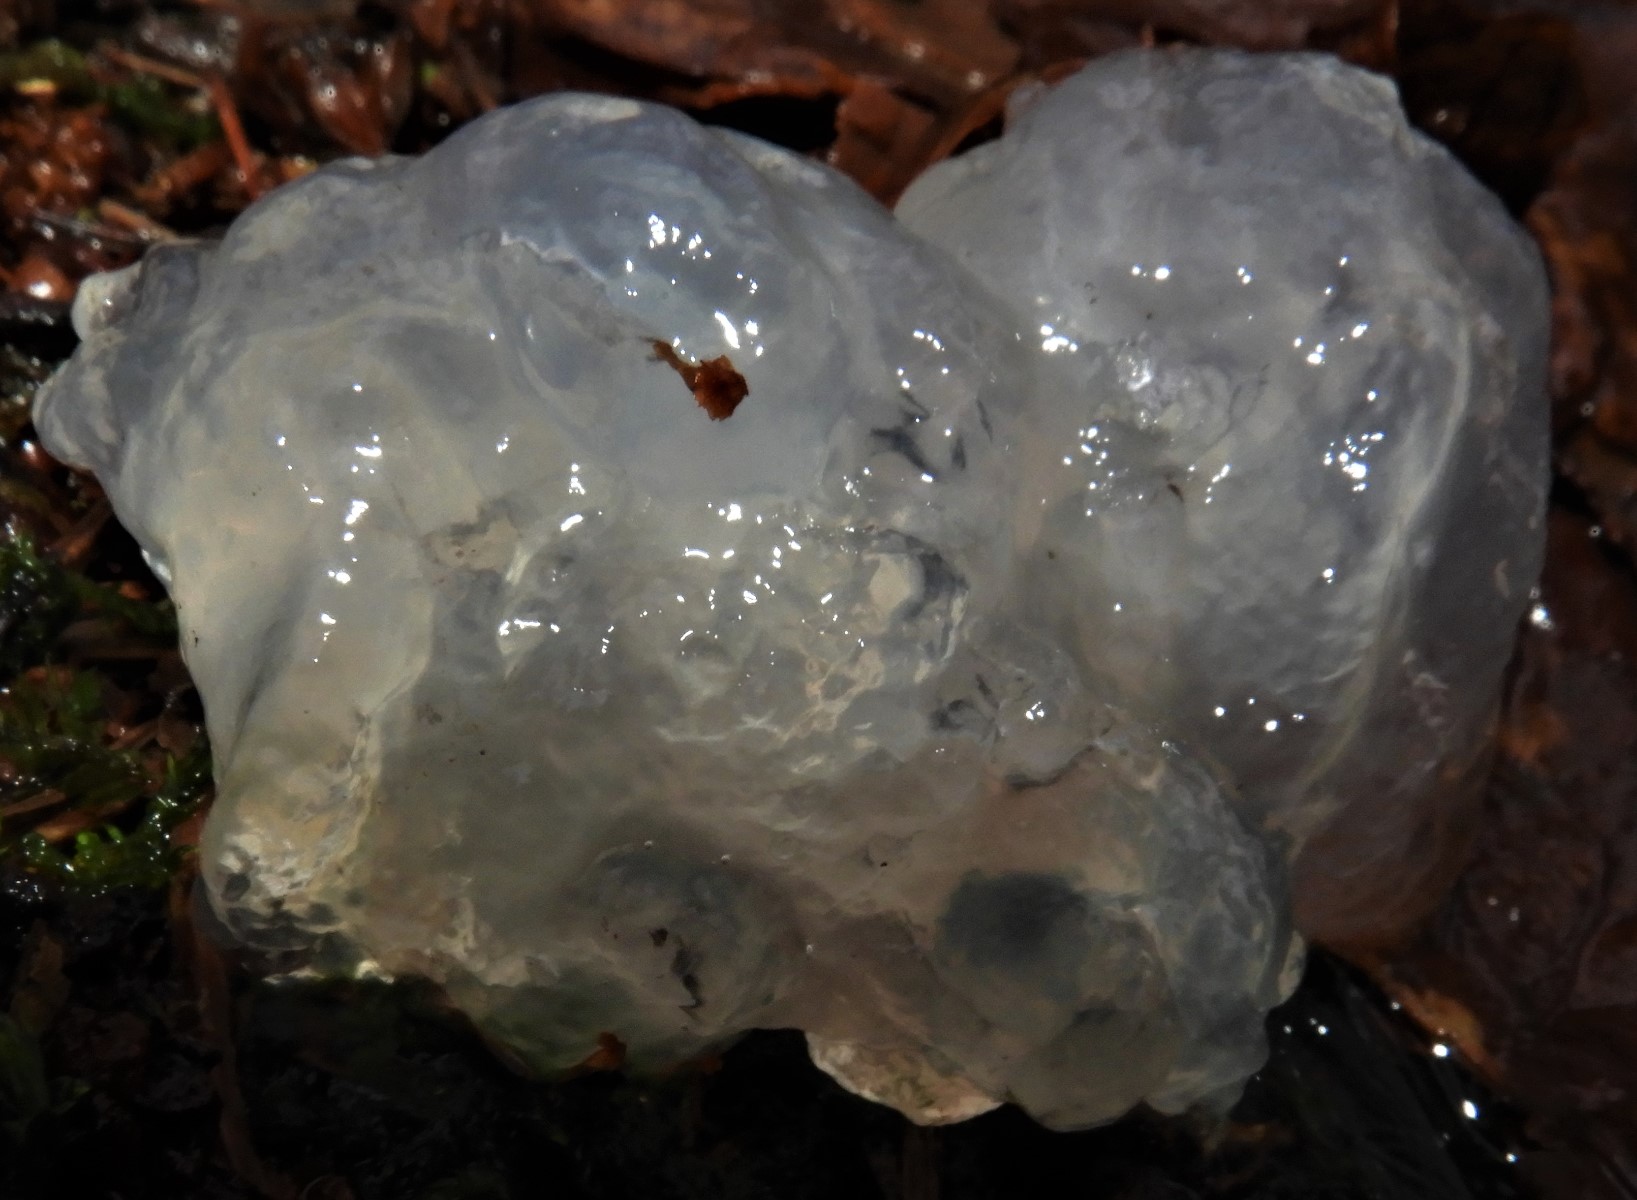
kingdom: Fungi
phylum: Basidiomycota
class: Agaricomycetes
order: Auriculariales
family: Hyaloriaceae
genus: Myxarium
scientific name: Myxarium nucleatum
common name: klar bævretop
